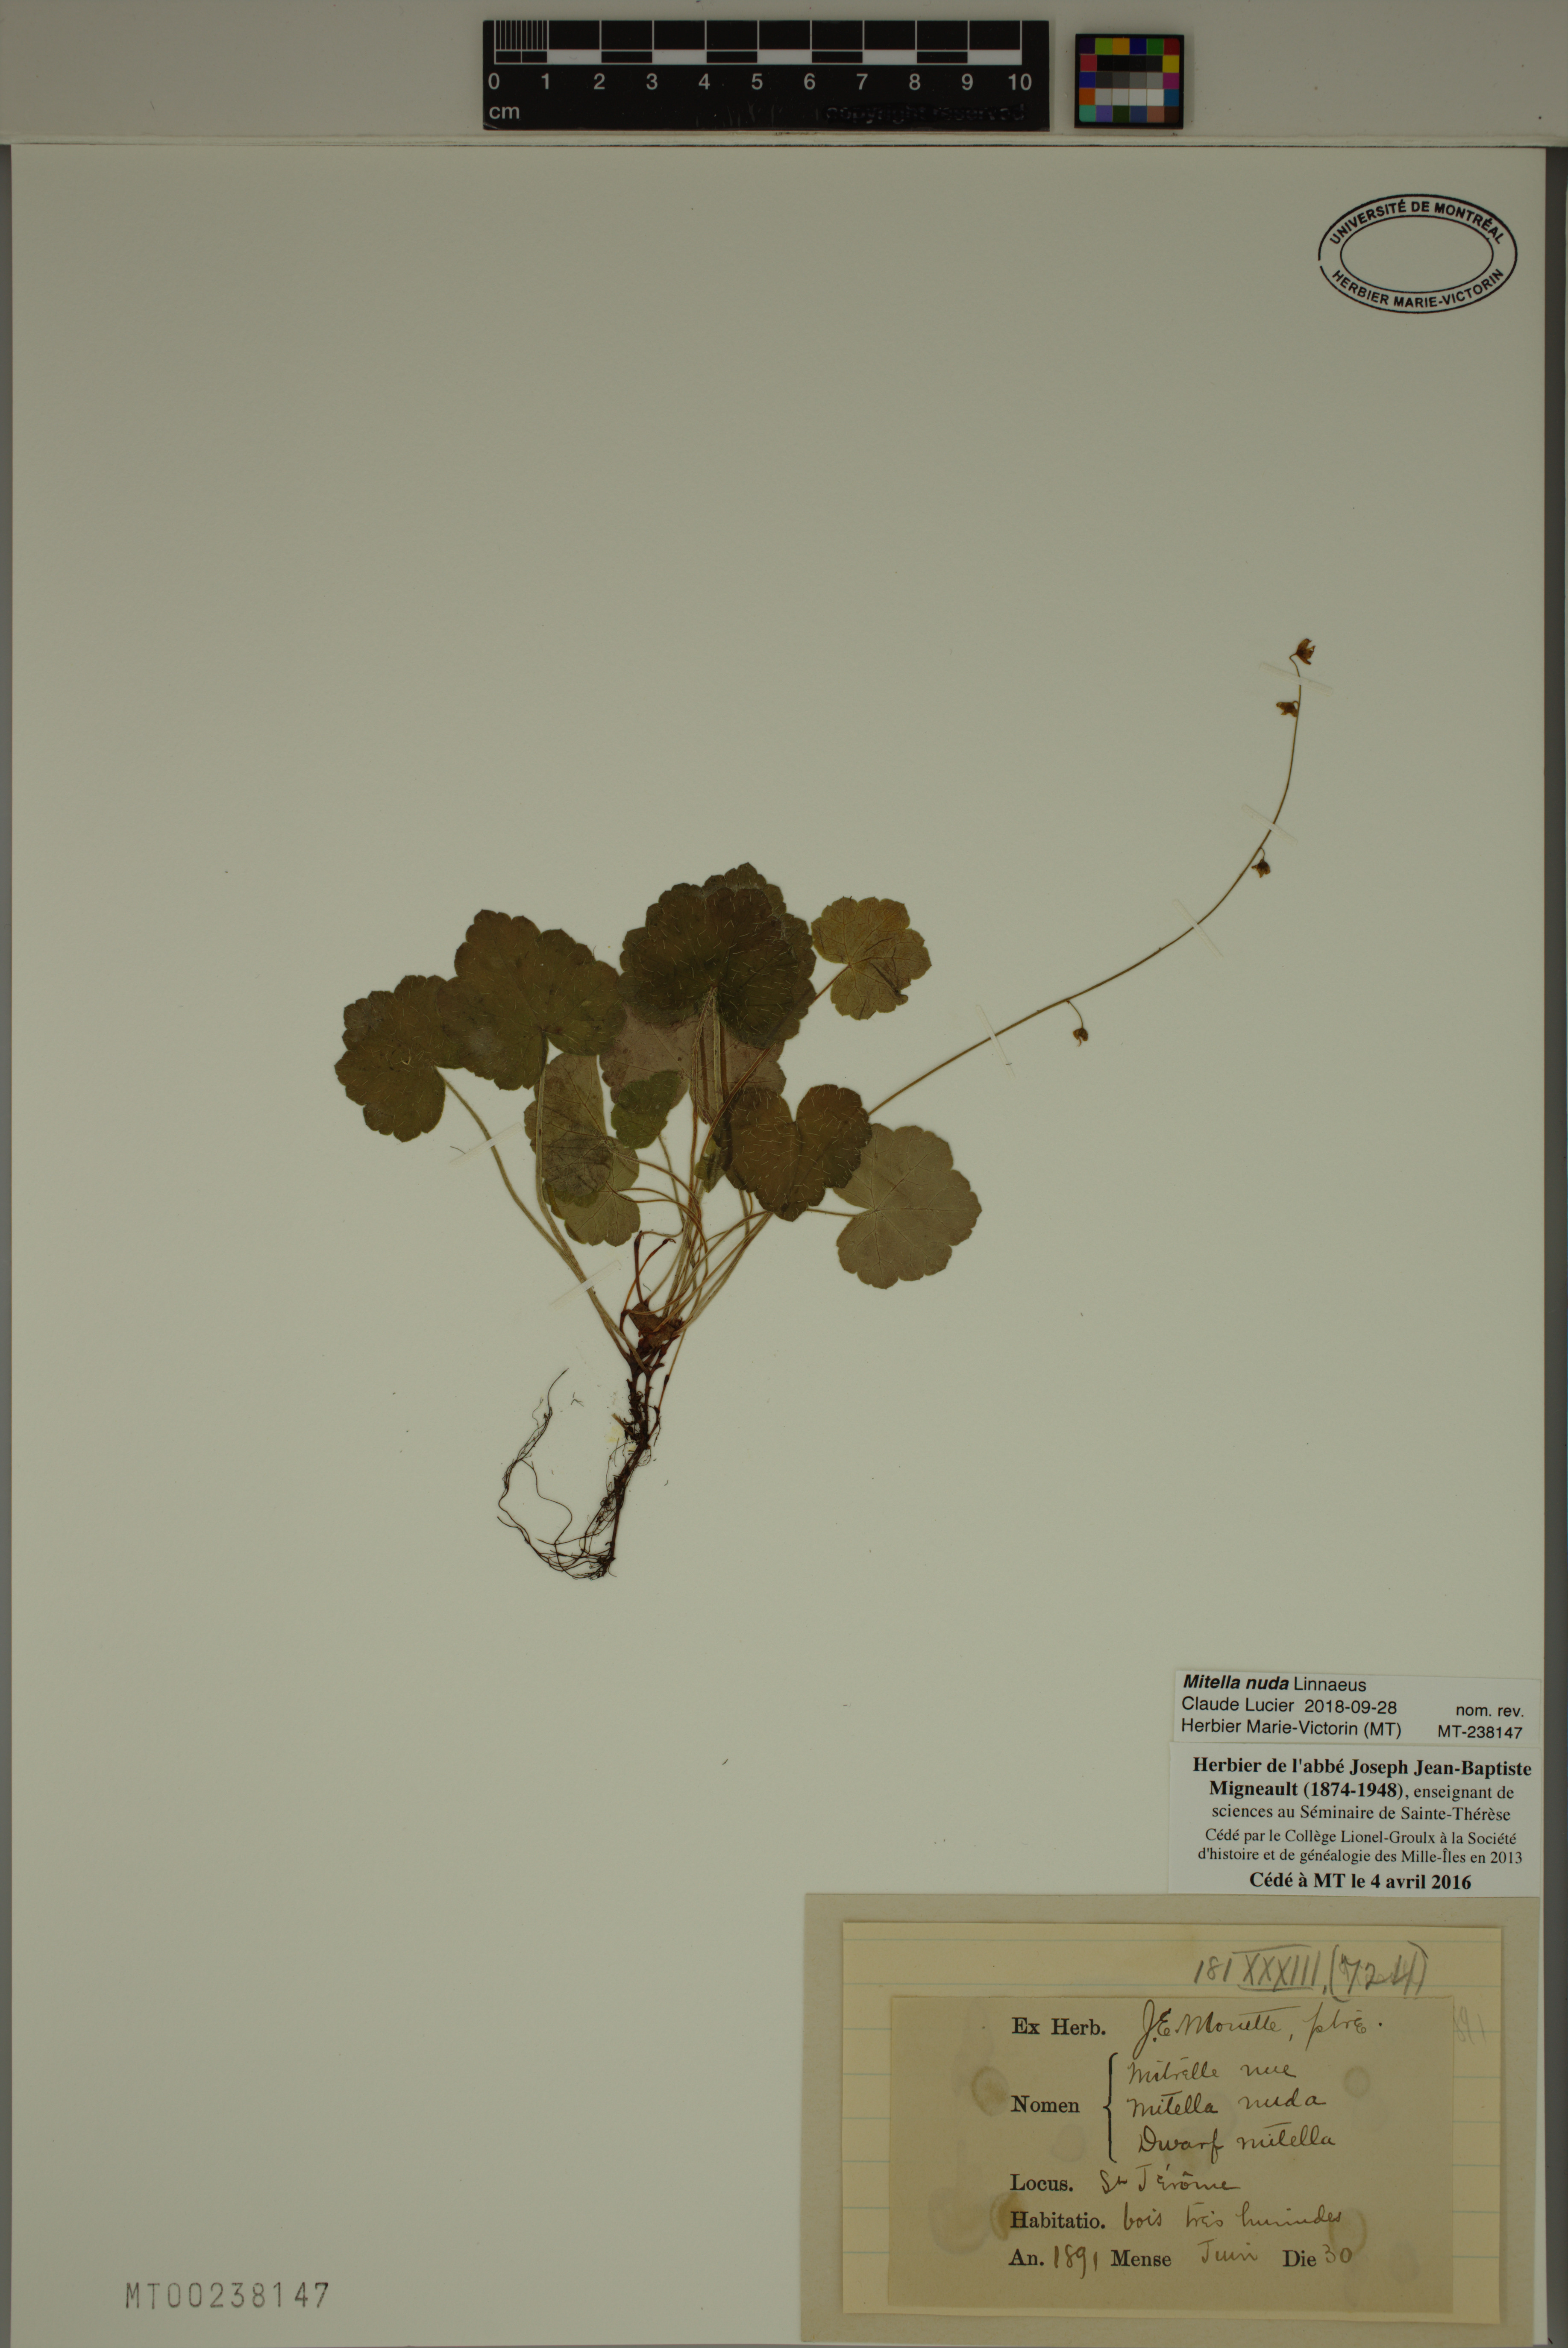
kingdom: Plantae
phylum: Tracheophyta
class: Magnoliopsida
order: Saxifragales
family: Saxifragaceae
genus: Mitella
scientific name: Mitella nuda
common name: Bare-stemmed bishop's-cap
